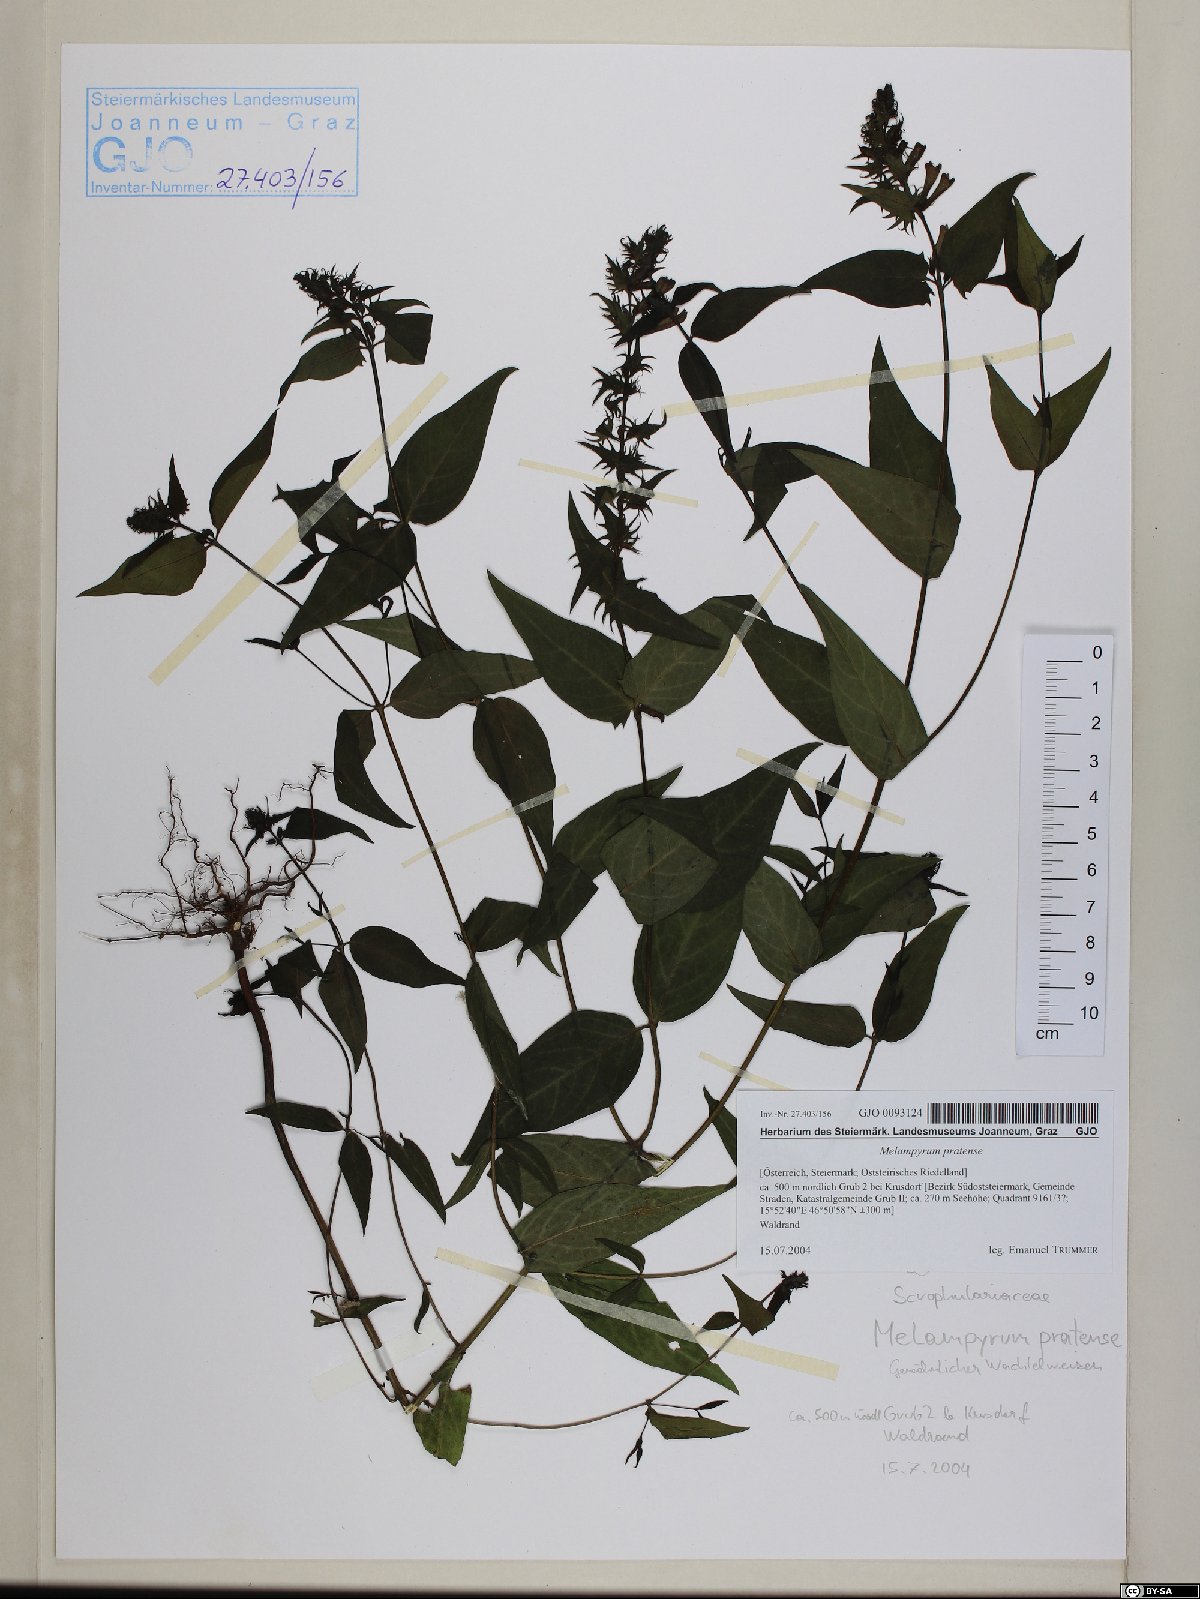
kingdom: Plantae
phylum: Tracheophyta
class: Magnoliopsida
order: Lamiales
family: Orobanchaceae
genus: Melampyrum
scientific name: Melampyrum pratense
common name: Common cow-wheat
